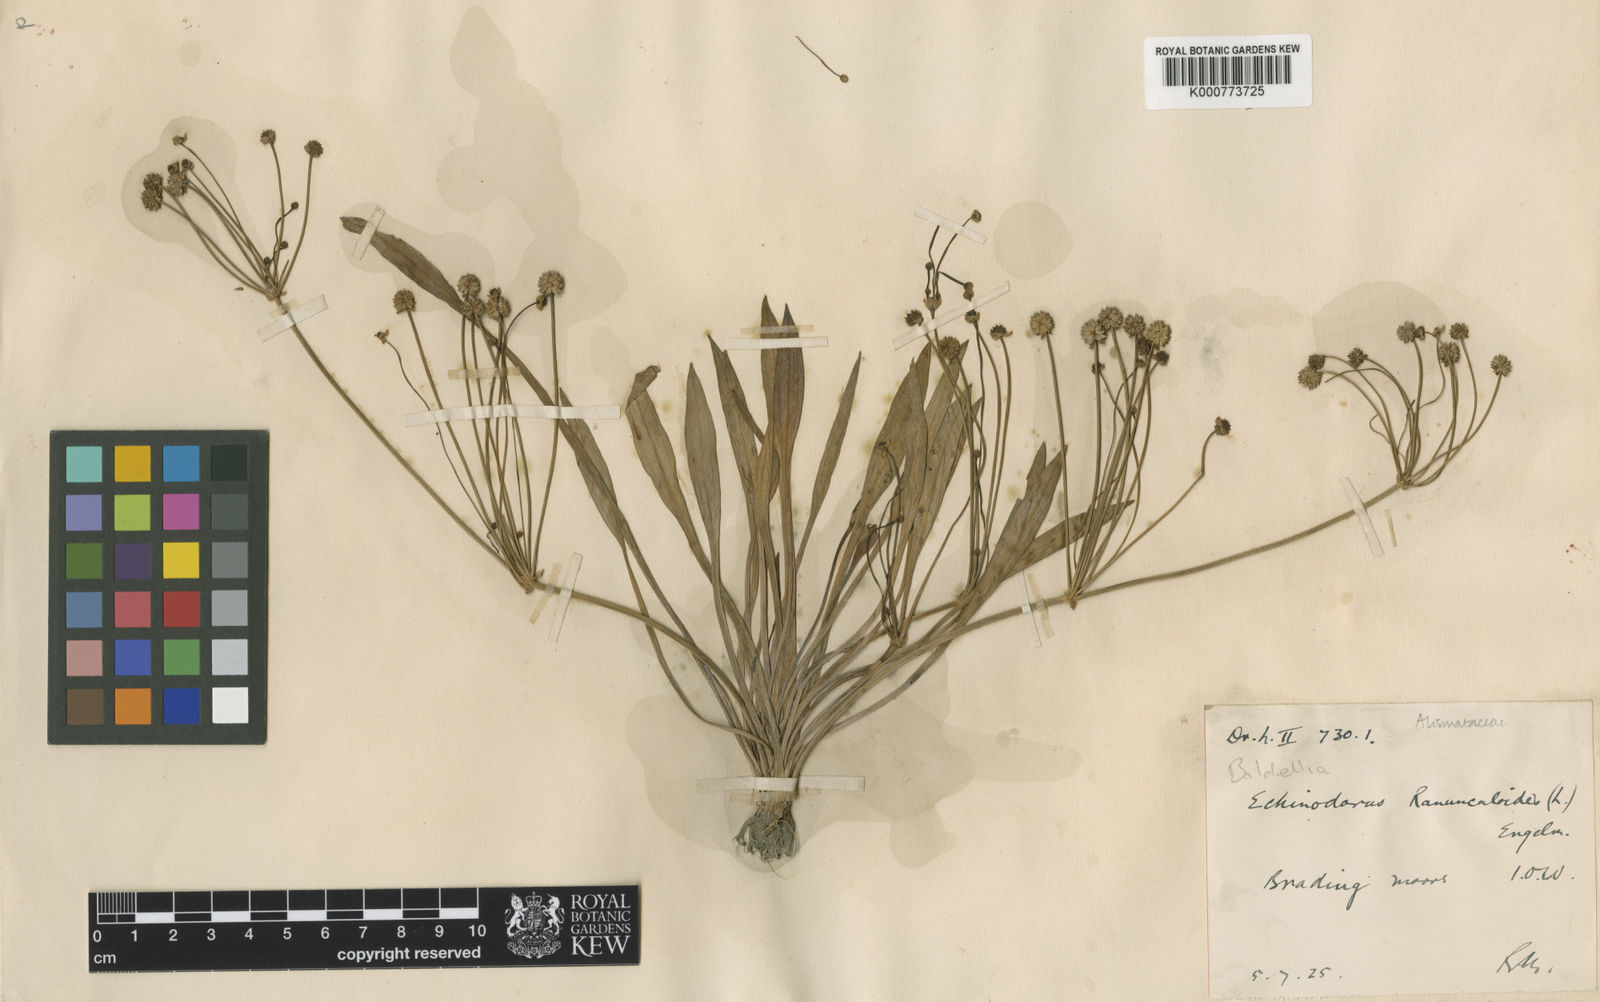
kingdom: Plantae
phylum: Tracheophyta
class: Liliopsida
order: Alismatales
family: Alismataceae
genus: Baldellia
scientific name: Baldellia ranunculoides
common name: Lesser water-plantain
